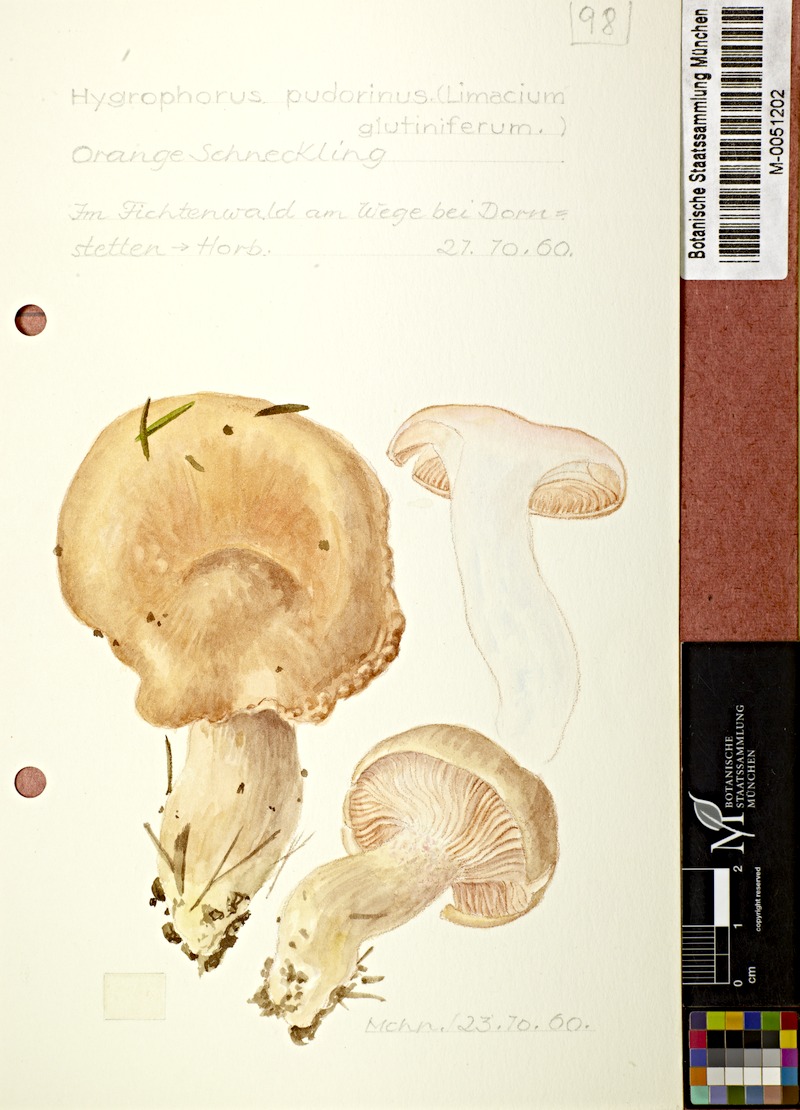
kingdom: Fungi
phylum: Basidiomycota
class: Agaricomycetes
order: Agaricales
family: Hygrophoraceae
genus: Hygrophorus
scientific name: Hygrophorus pudorinus
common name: Rosy woodwax
